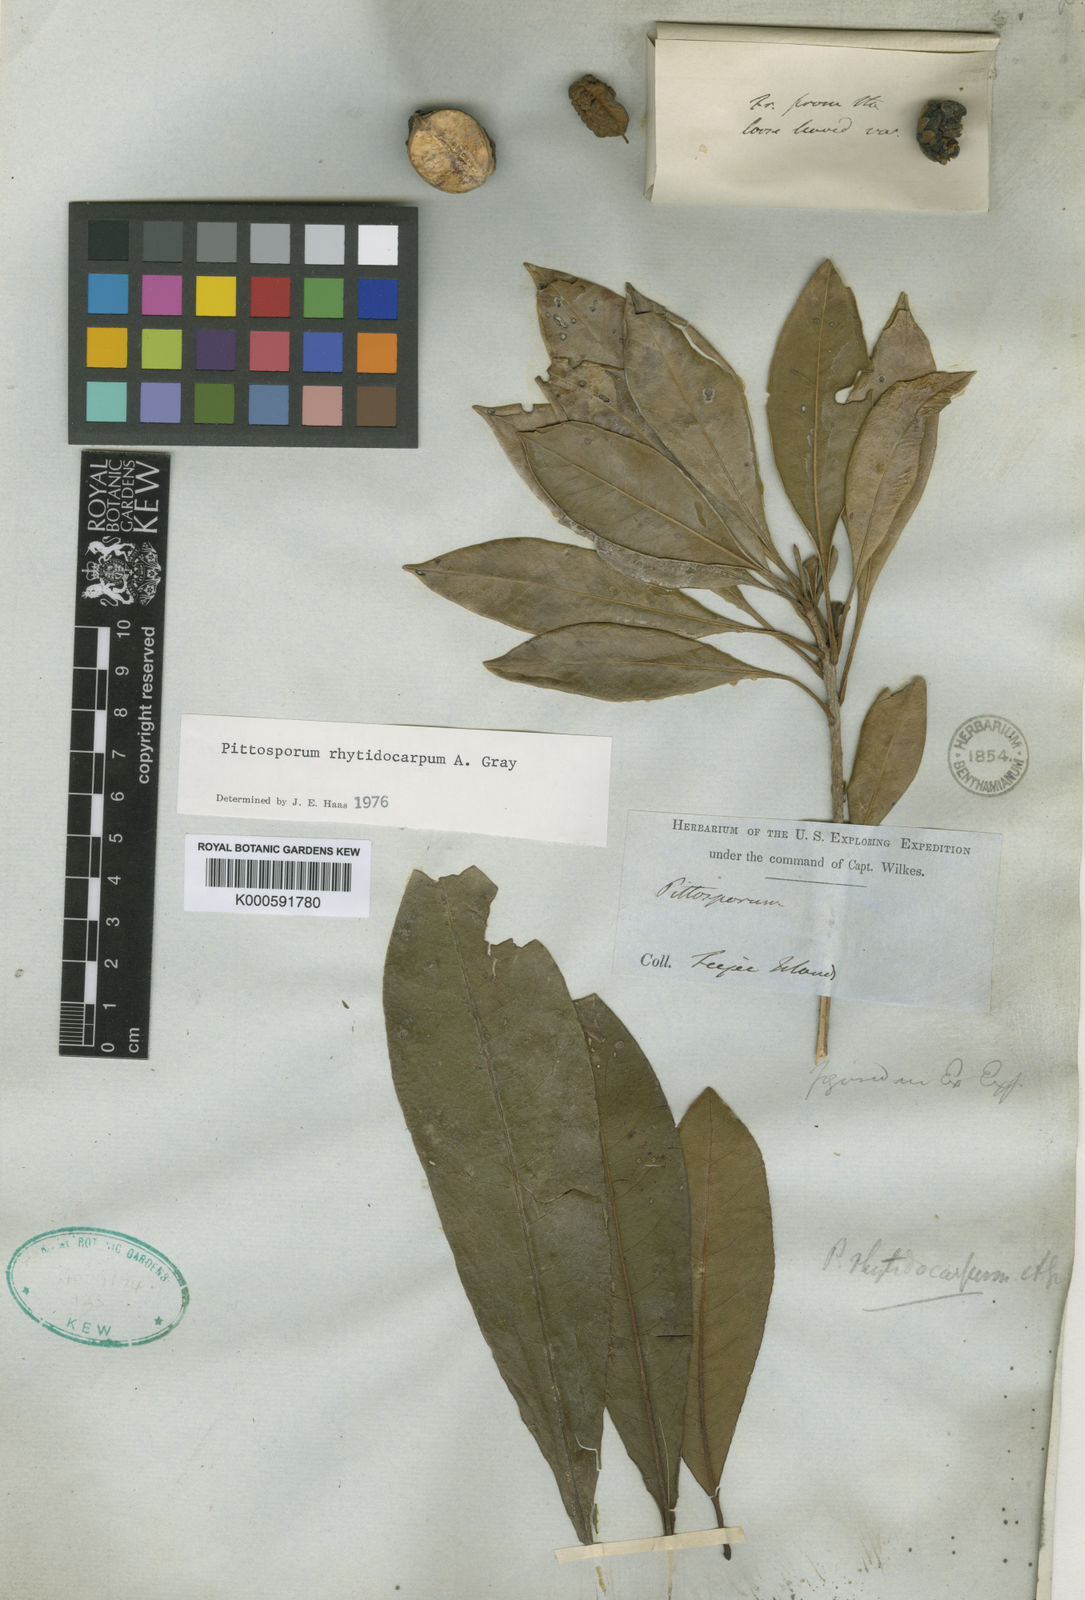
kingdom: Plantae
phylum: Tracheophyta
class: Magnoliopsida
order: Apiales
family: Pittosporaceae
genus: Pittosporum
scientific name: Pittosporum rhytidocarpum
